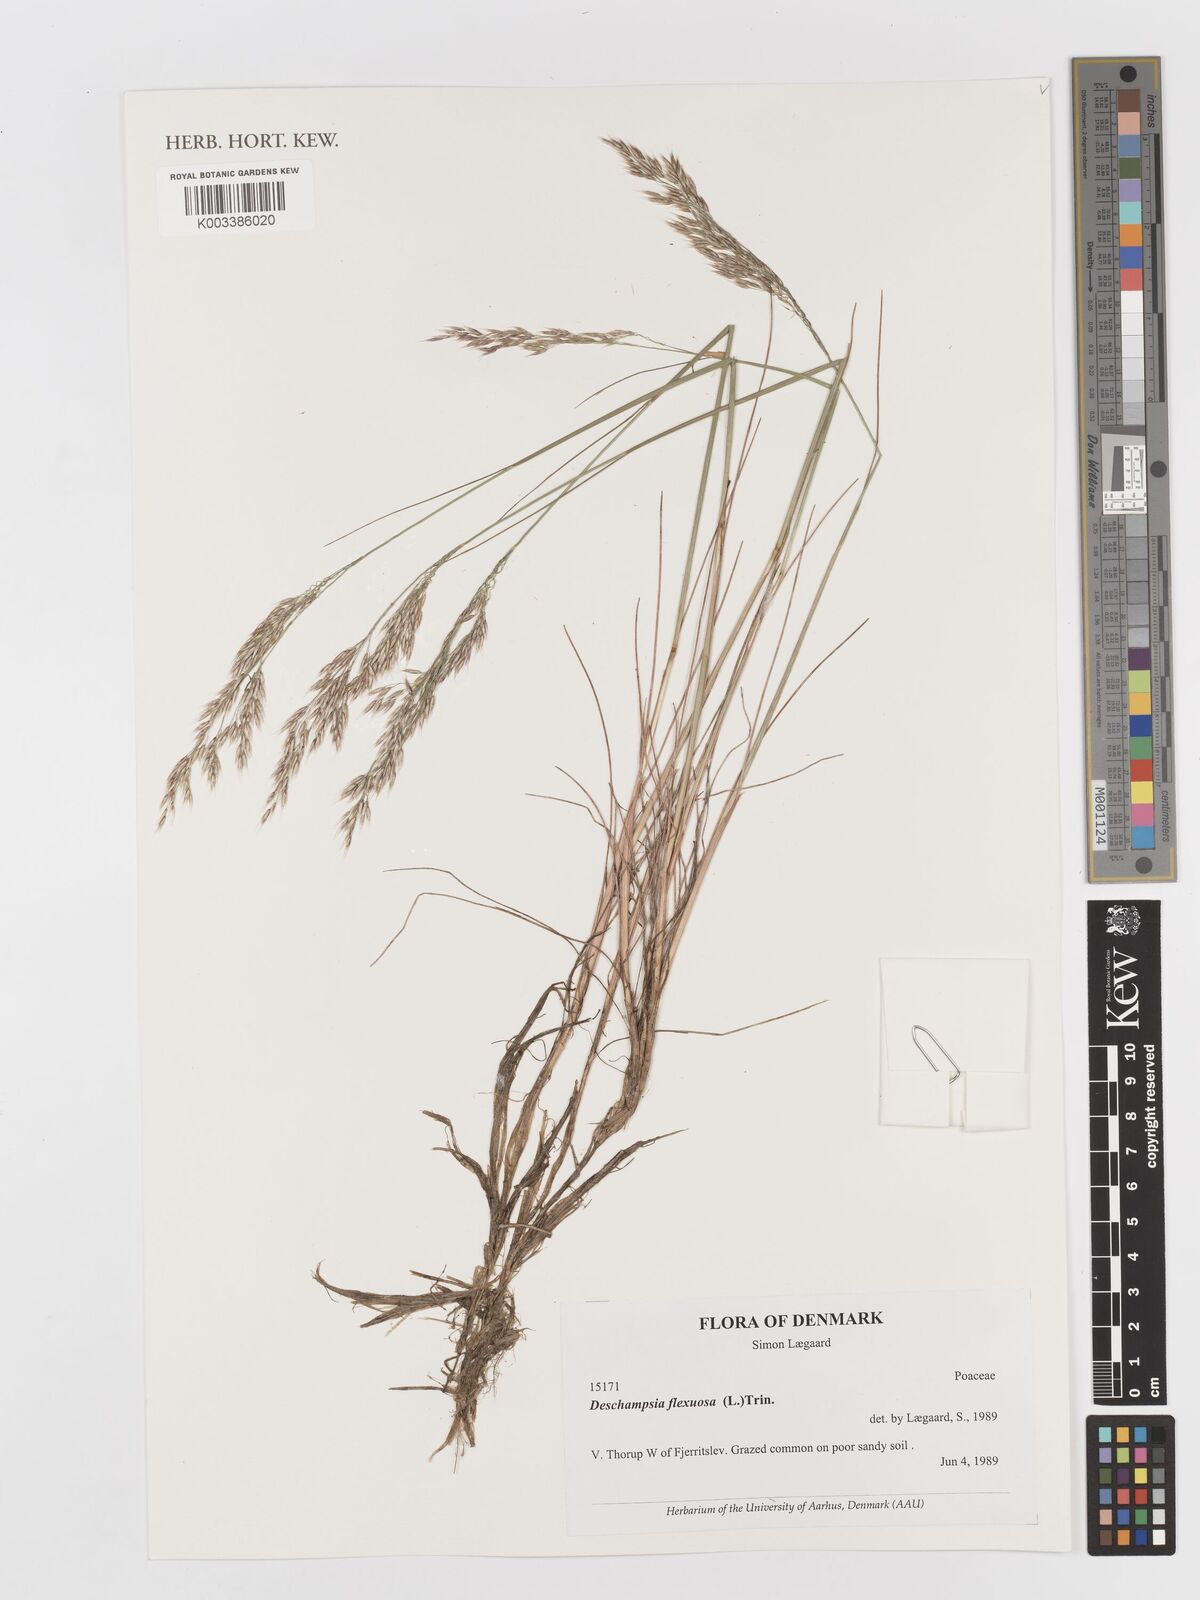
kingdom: Plantae
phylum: Tracheophyta
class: Liliopsida
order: Poales
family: Poaceae
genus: Avenella
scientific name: Avenella flexuosa
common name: Wavy hairgrass
